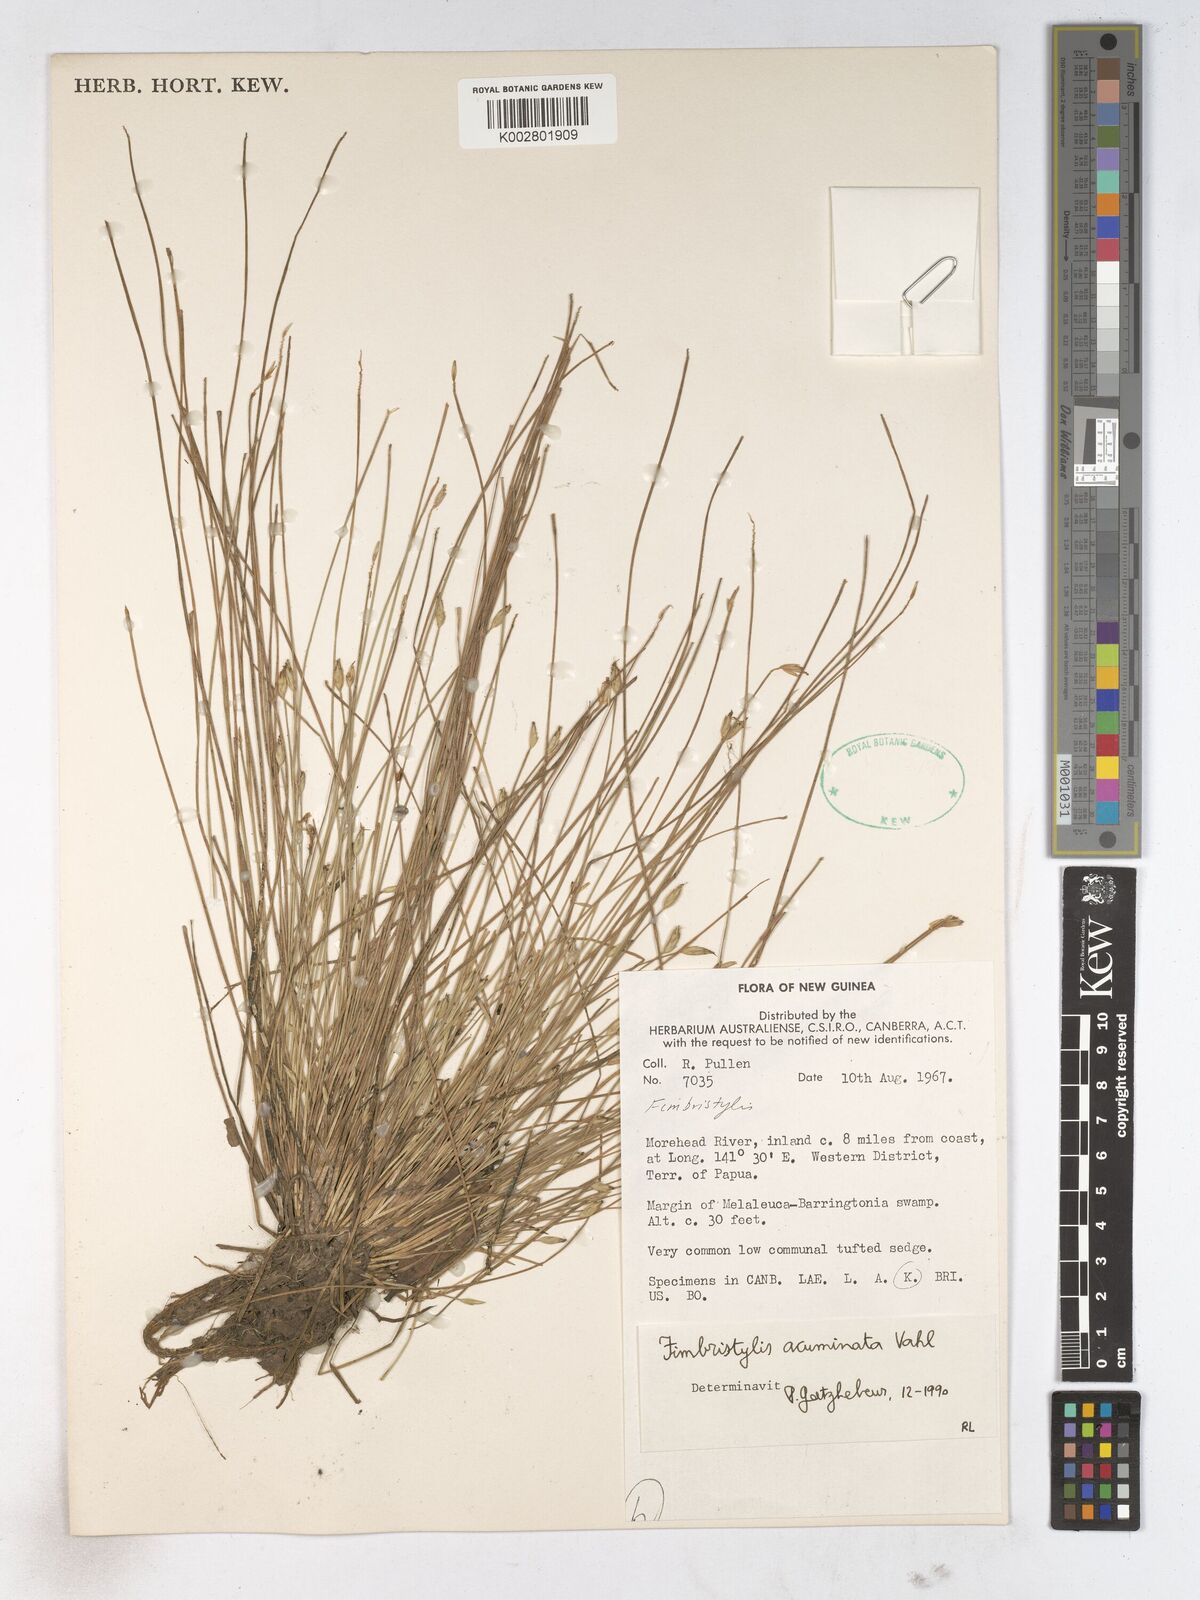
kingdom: Plantae
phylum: Tracheophyta
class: Liliopsida
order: Poales
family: Cyperaceae
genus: Fimbristylis
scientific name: Fimbristylis acuminata
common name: Pointed fimbristylis
